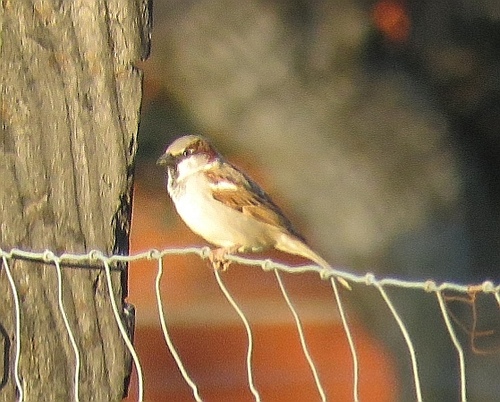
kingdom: Animalia
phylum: Chordata
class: Aves
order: Passeriformes
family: Passeridae
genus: Passer
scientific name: Passer domesticus
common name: House sparrow
